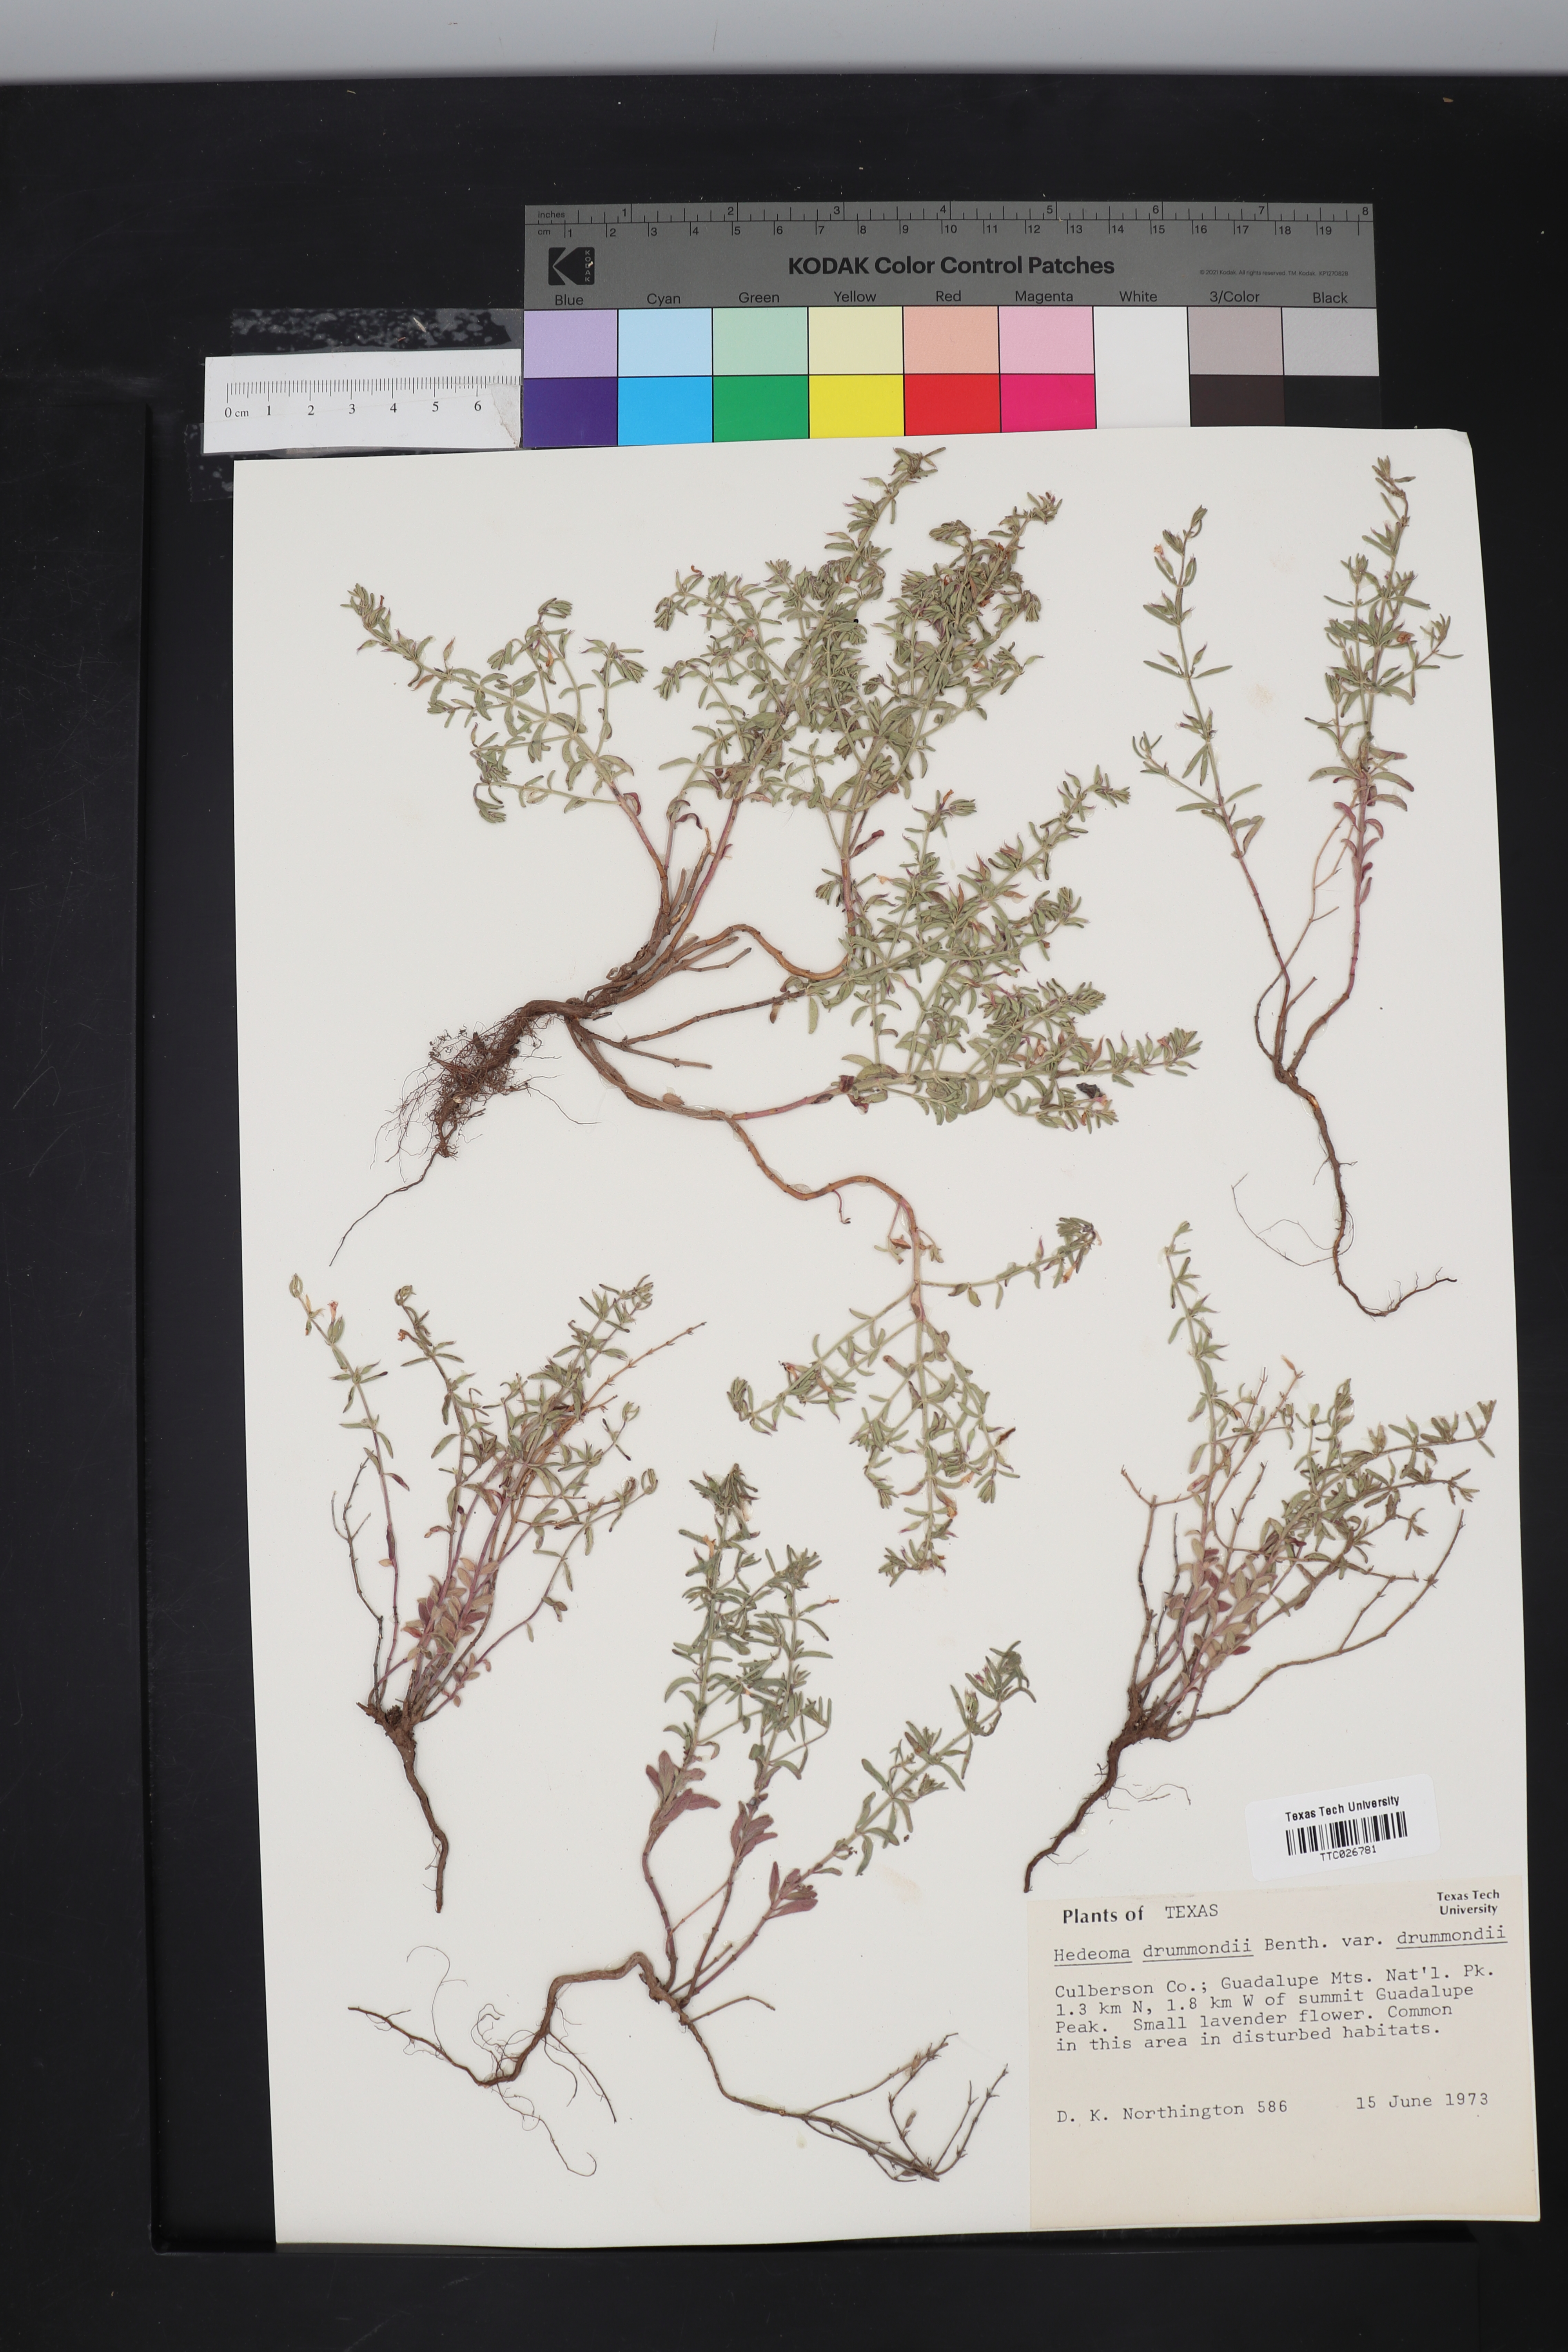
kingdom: Plantae
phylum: Tracheophyta
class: Magnoliopsida
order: Lamiales
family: Lamiaceae
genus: Hedeoma
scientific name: Hedeoma drummondii
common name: New mexico pennyroyal
